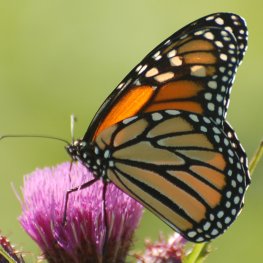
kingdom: Animalia
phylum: Arthropoda
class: Insecta
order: Lepidoptera
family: Nymphalidae
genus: Danaus
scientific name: Danaus plexippus
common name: Monarch
